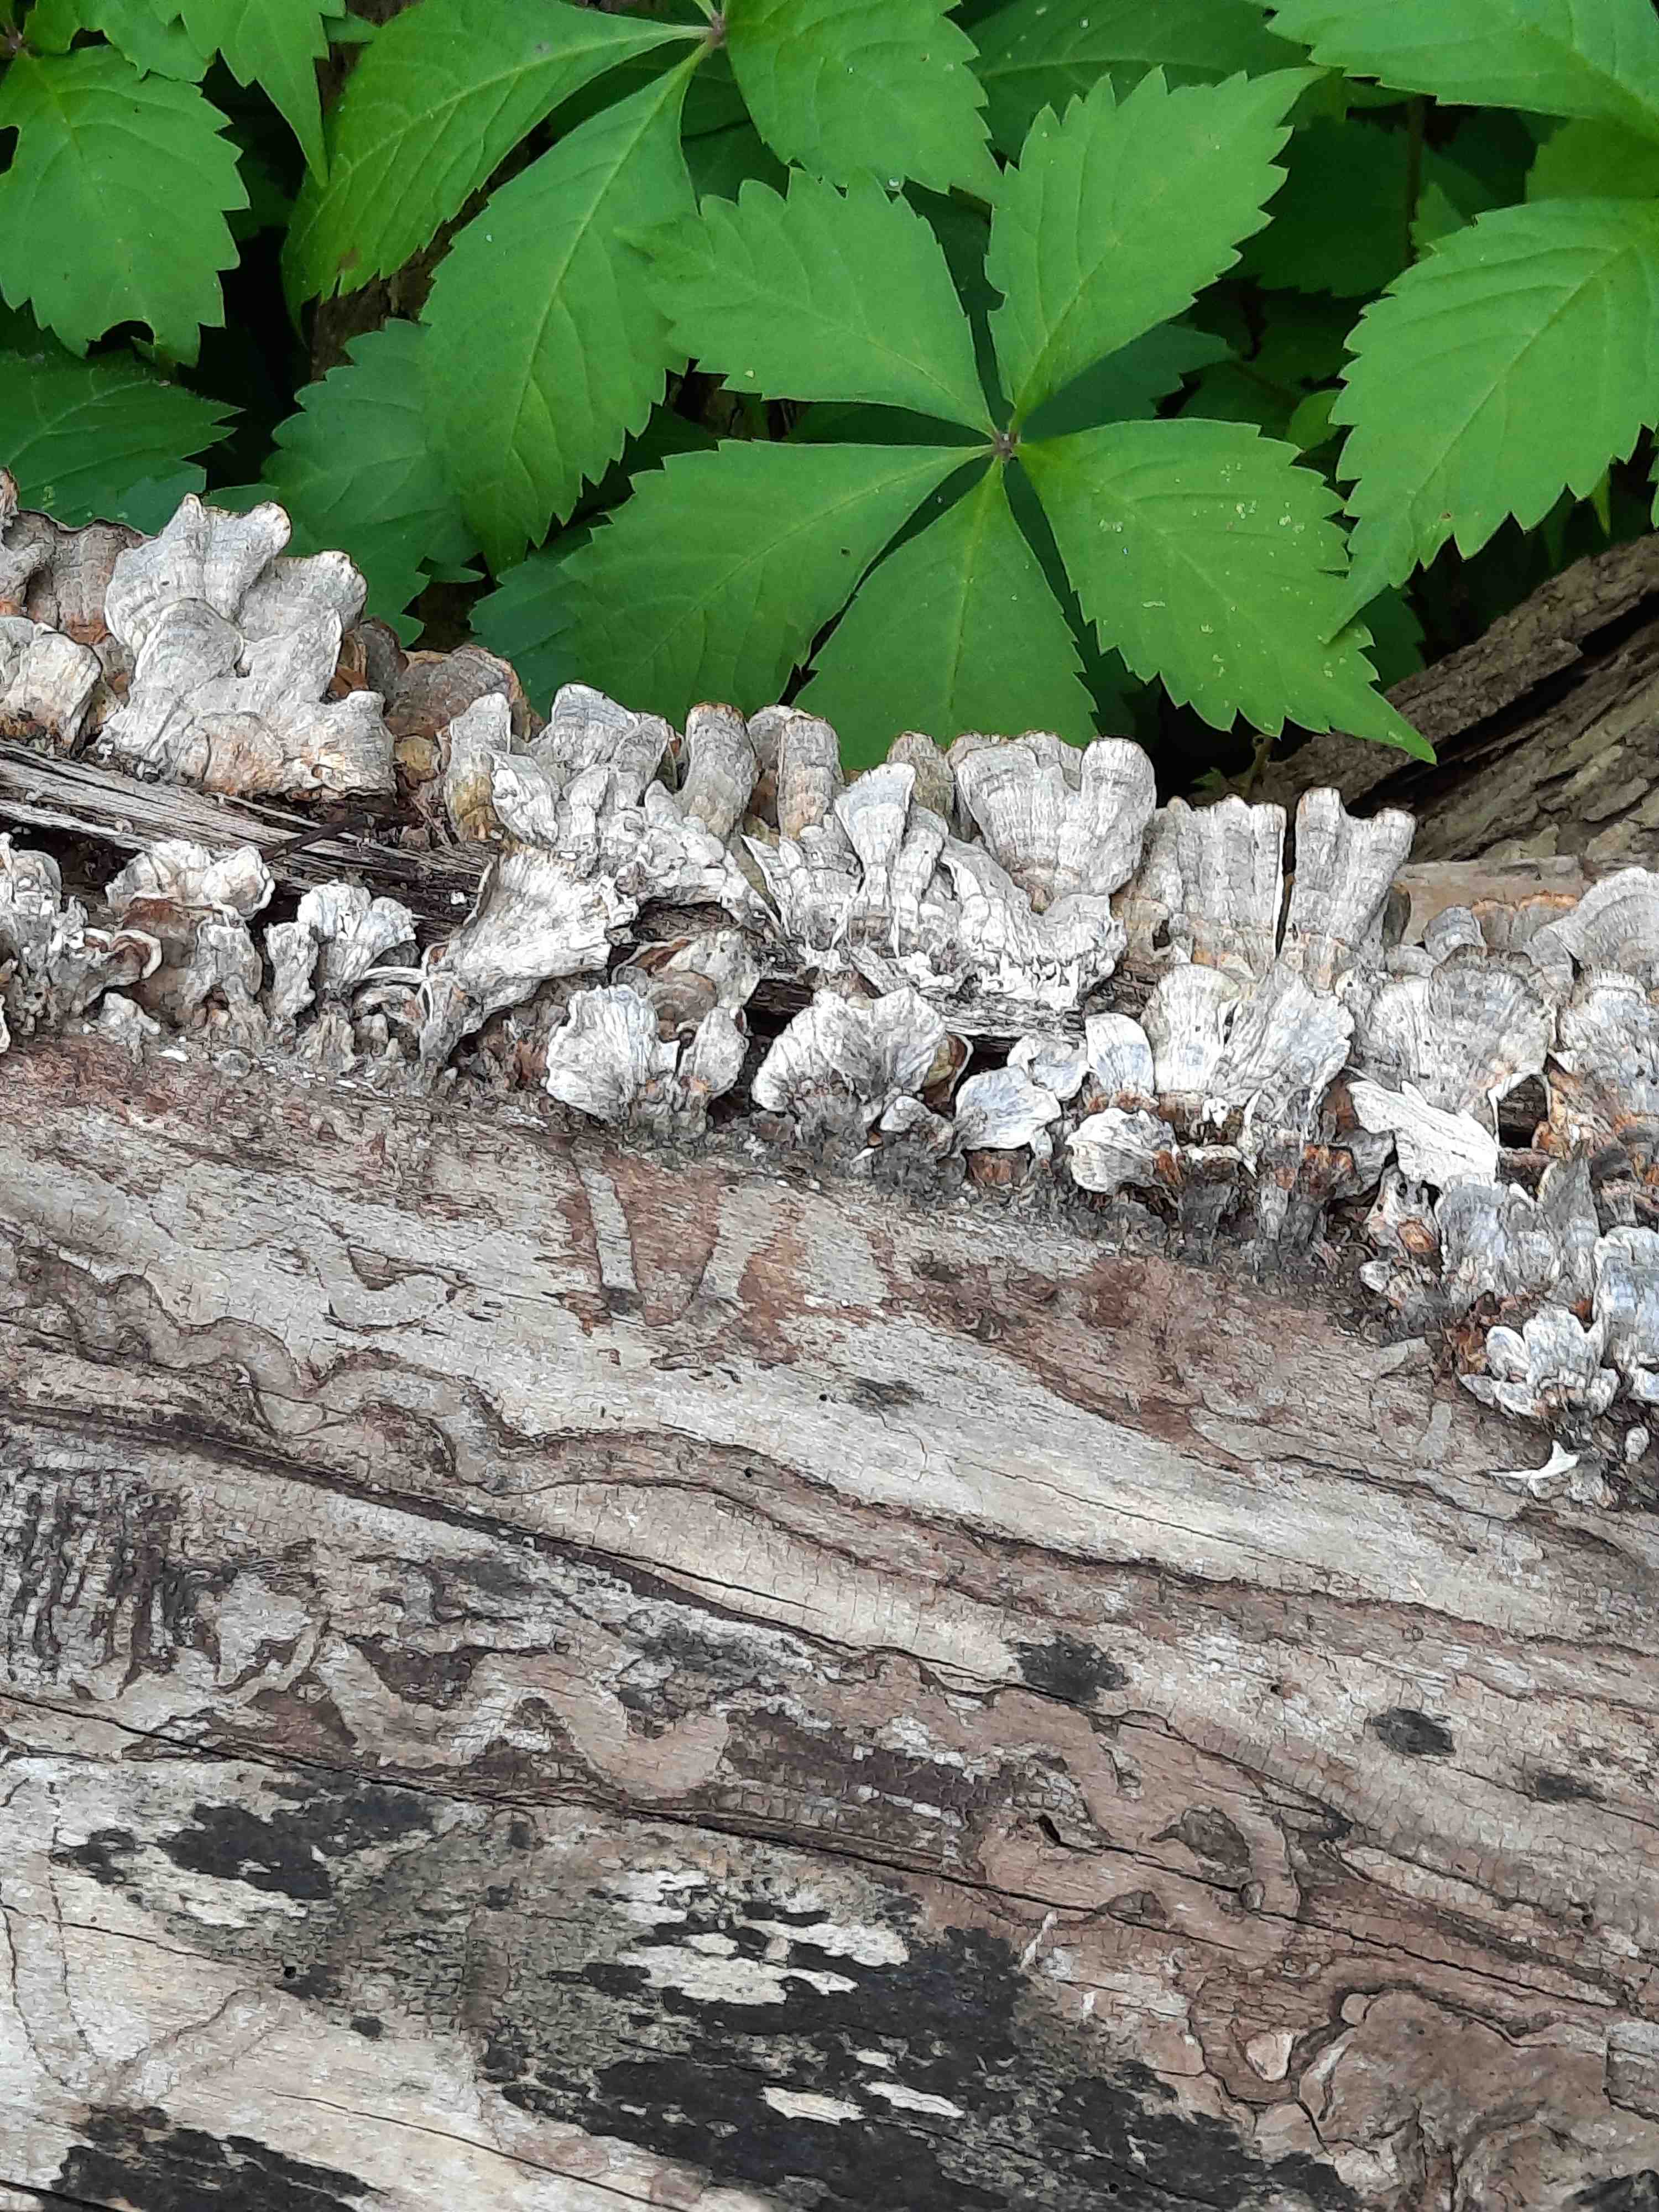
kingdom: Fungi
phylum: Basidiomycota
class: Agaricomycetes
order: Polyporales
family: Polyporaceae
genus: Trametes
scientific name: Trametes versicolor
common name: broget læderporesvamp
